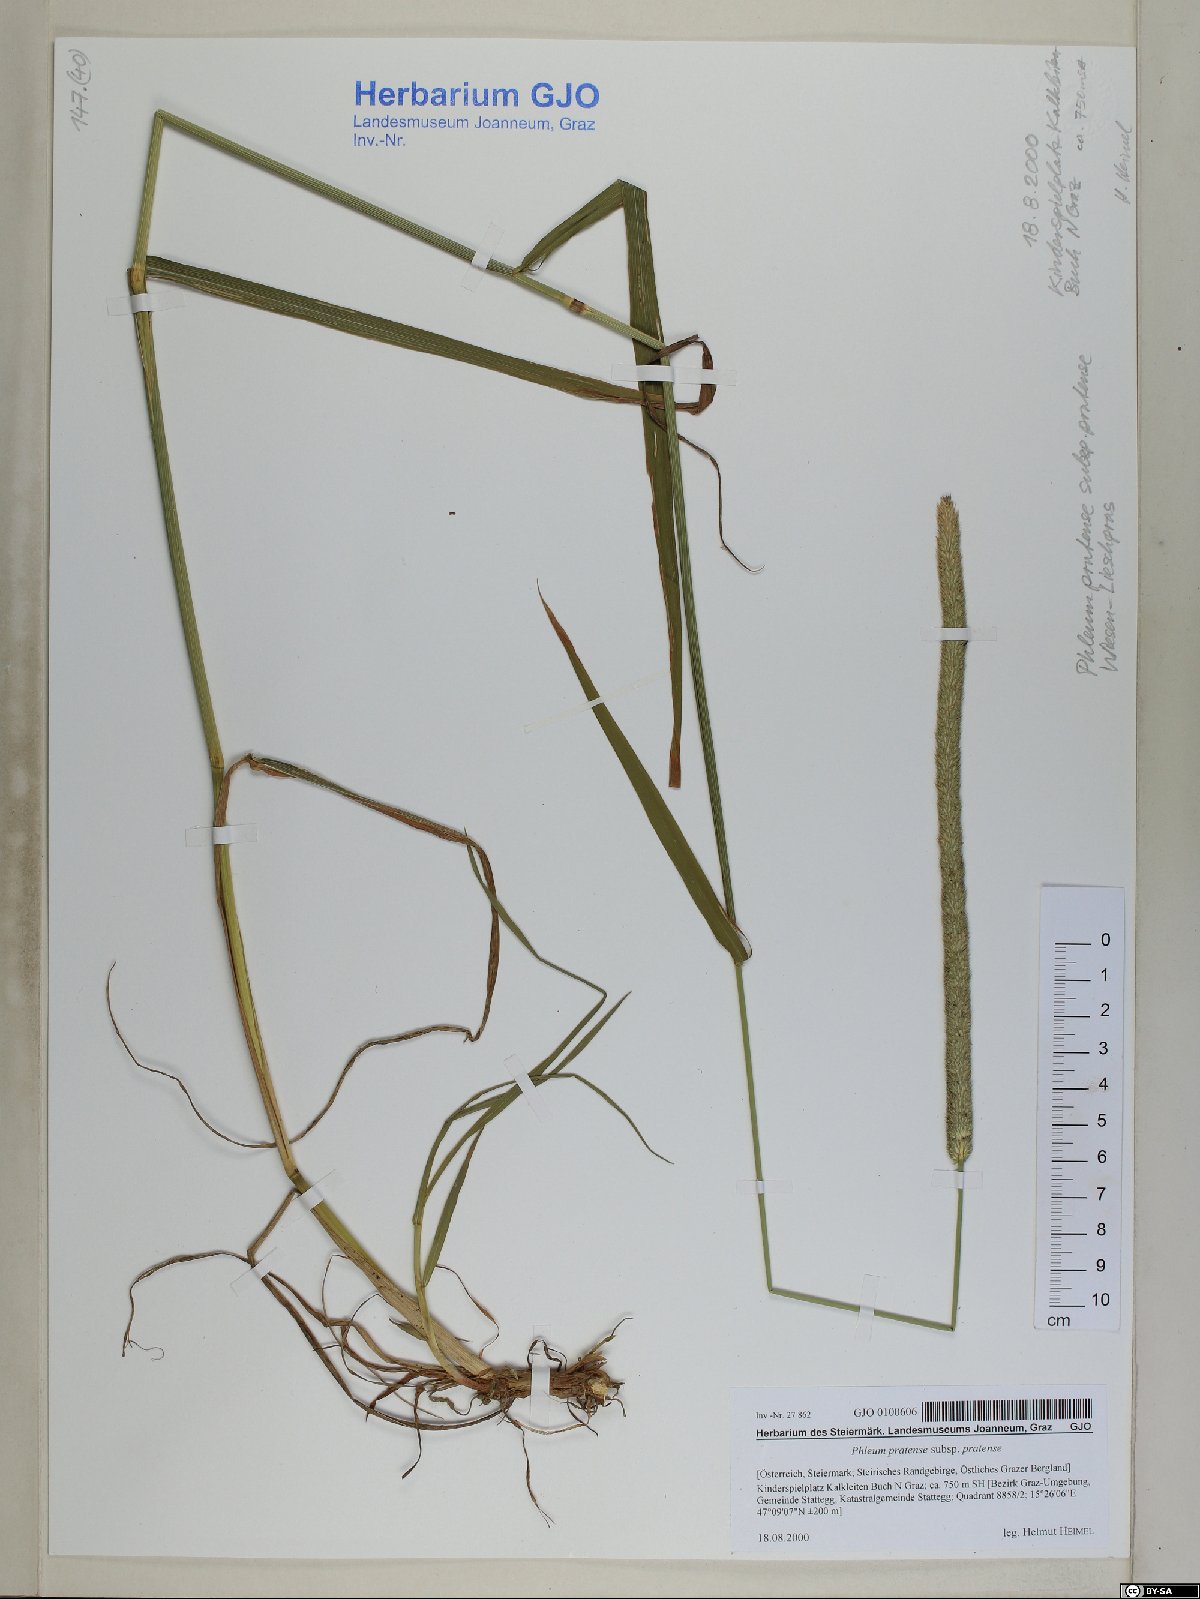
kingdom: Plantae
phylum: Tracheophyta
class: Liliopsida
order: Poales
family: Poaceae
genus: Phleum
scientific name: Phleum pratense
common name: Timothy grass
